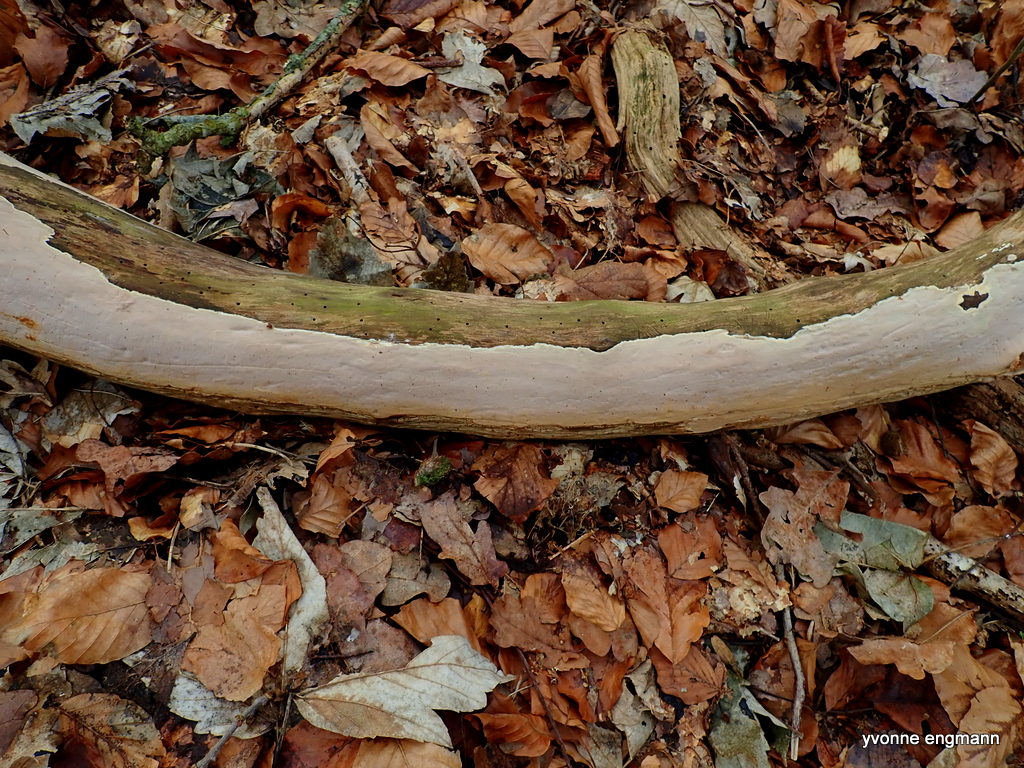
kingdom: Fungi
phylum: Basidiomycota
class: Agaricomycetes
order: Russulales
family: Peniophoraceae
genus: Scytinostroma
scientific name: Scytinostroma hemidichophyticum
